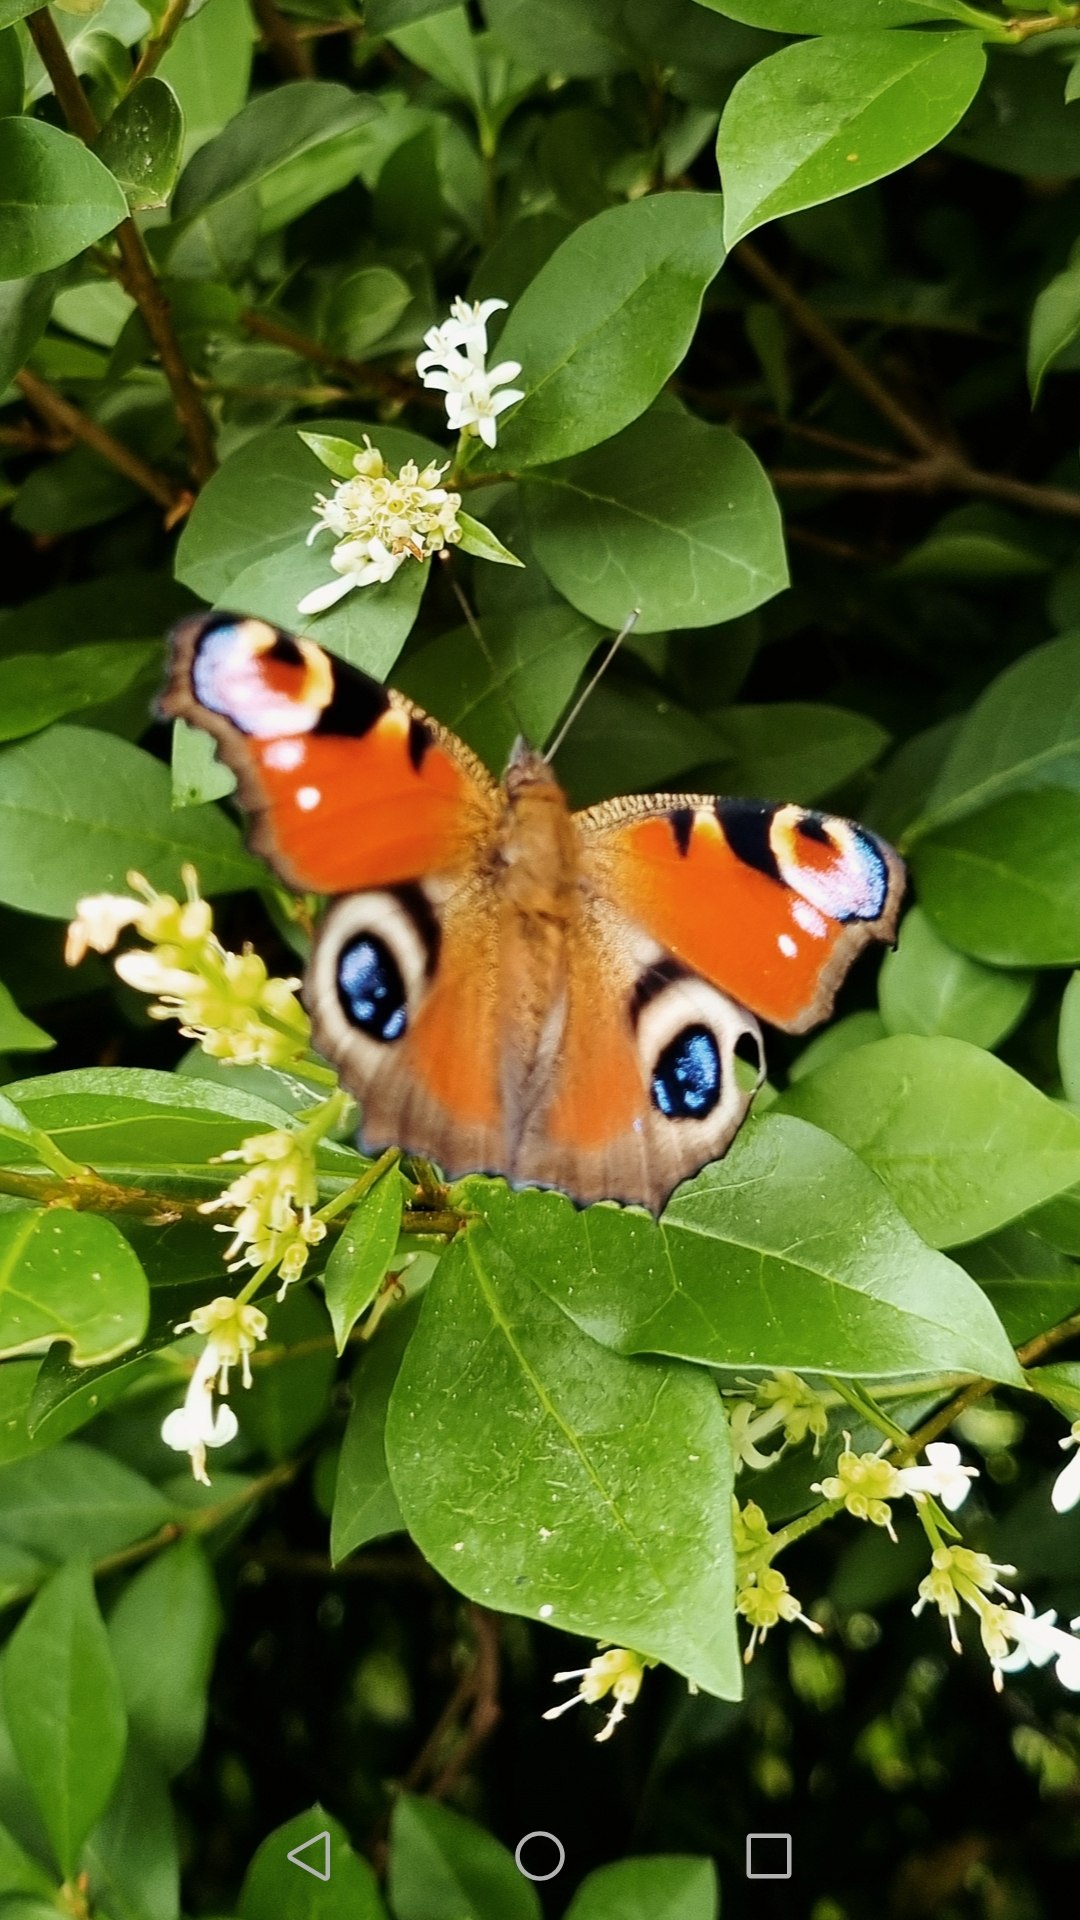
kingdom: Animalia
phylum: Arthropoda
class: Insecta
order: Lepidoptera
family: Nymphalidae
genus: Aglais
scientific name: Aglais io
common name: Dagpåfugleøje
